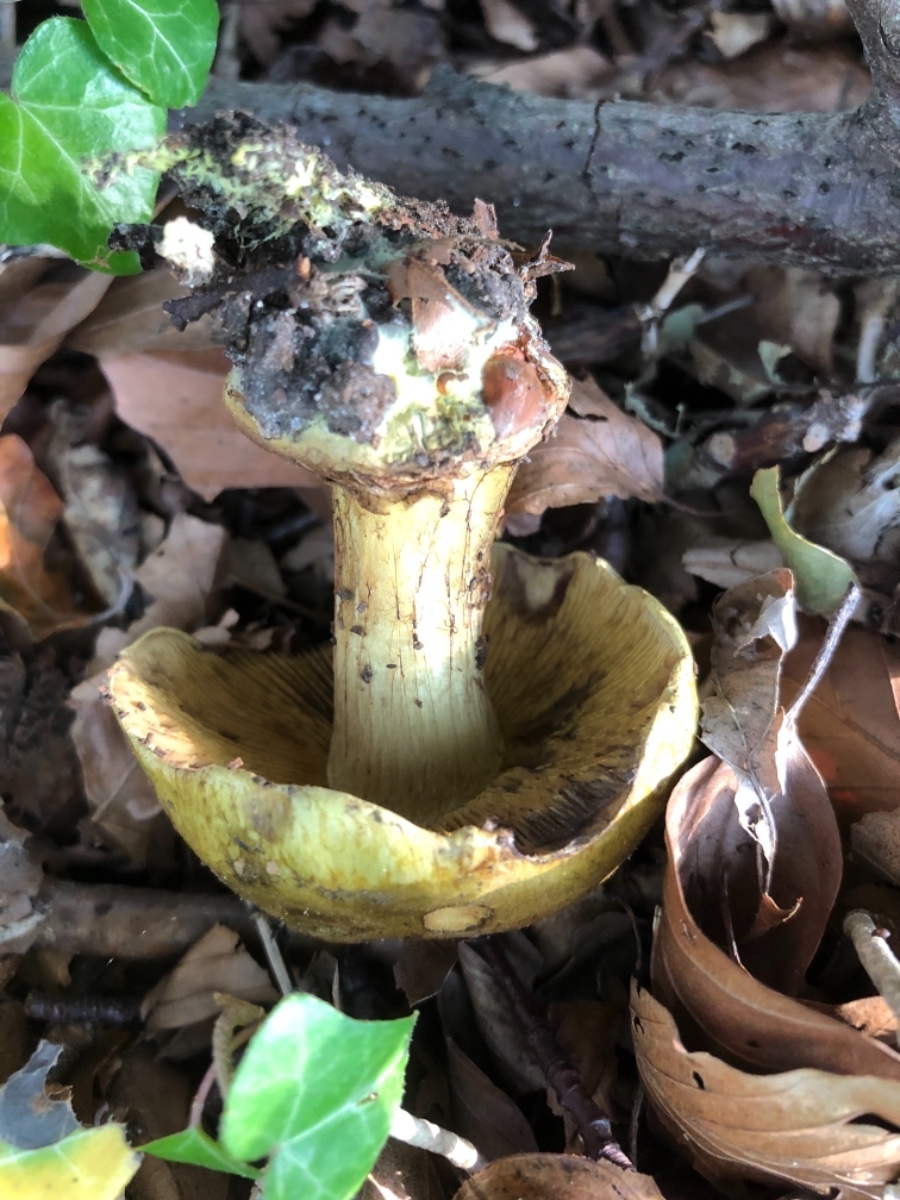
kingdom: Fungi
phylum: Basidiomycota
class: Agaricomycetes
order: Agaricales
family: Cortinariaceae
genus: Calonarius
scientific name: Calonarius odoratus
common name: krydret slørhat
